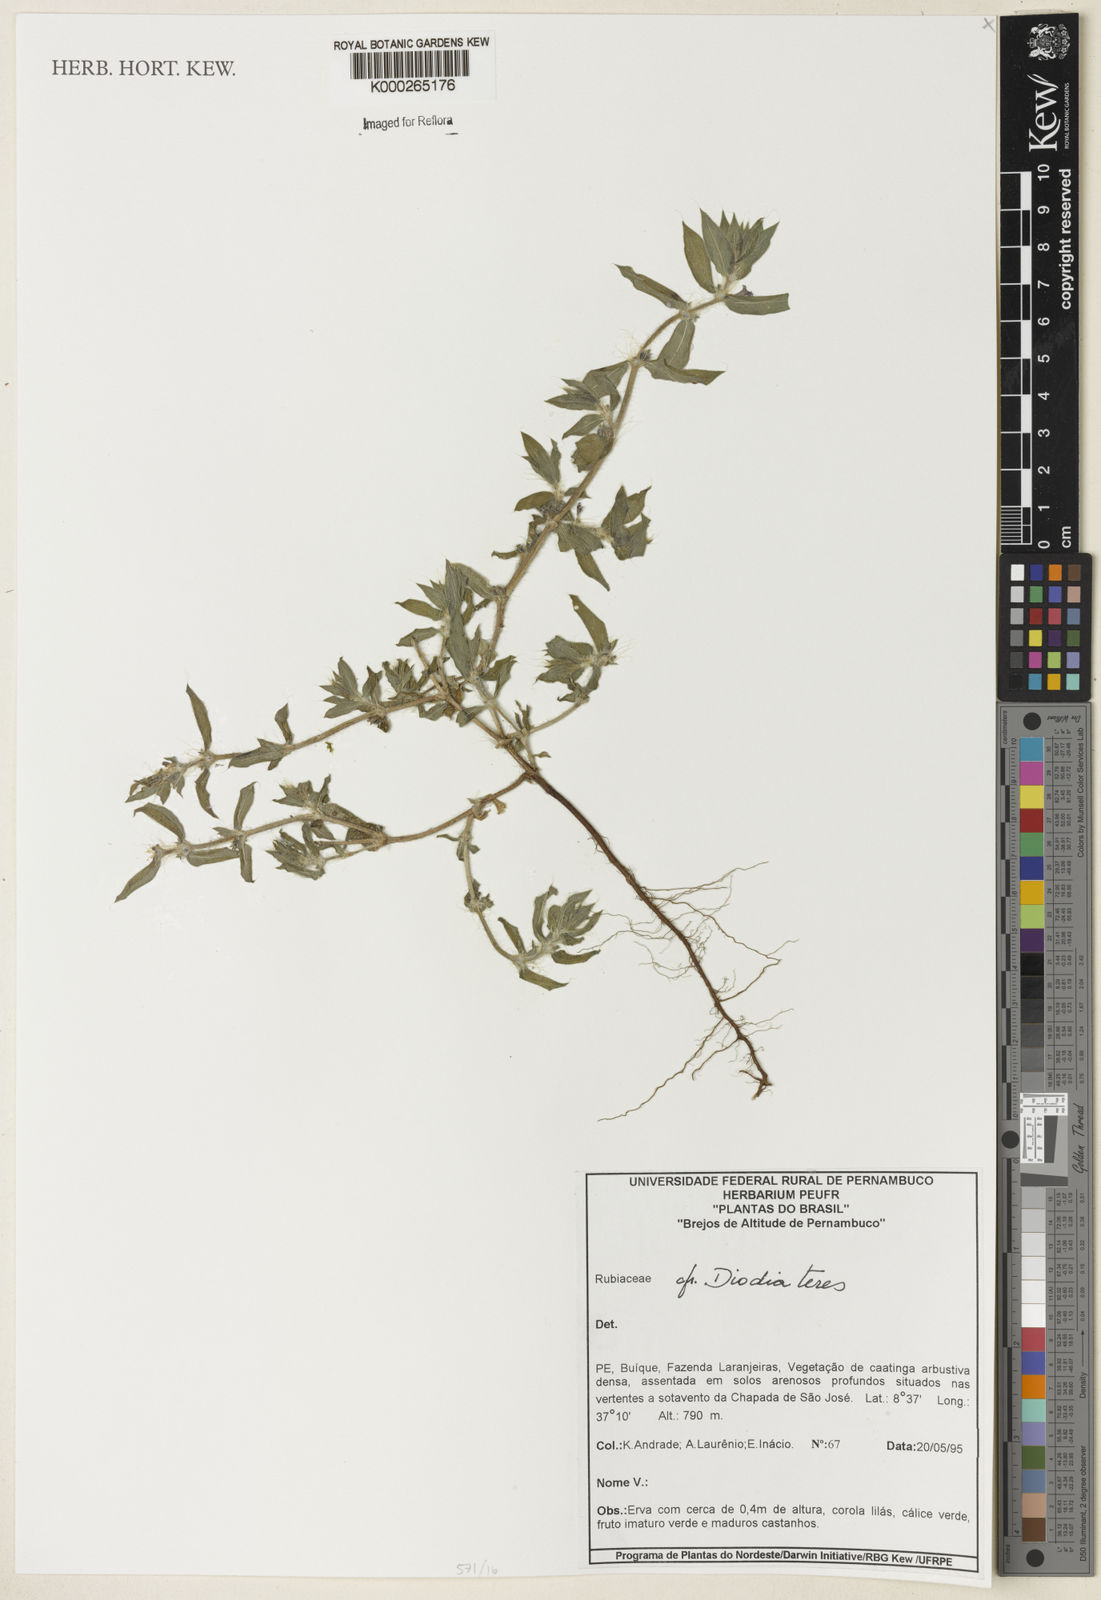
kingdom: Plantae
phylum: Tracheophyta
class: Magnoliopsida
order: Gentianales
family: Rubiaceae
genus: Hexasepalum
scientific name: Hexasepalum teres
